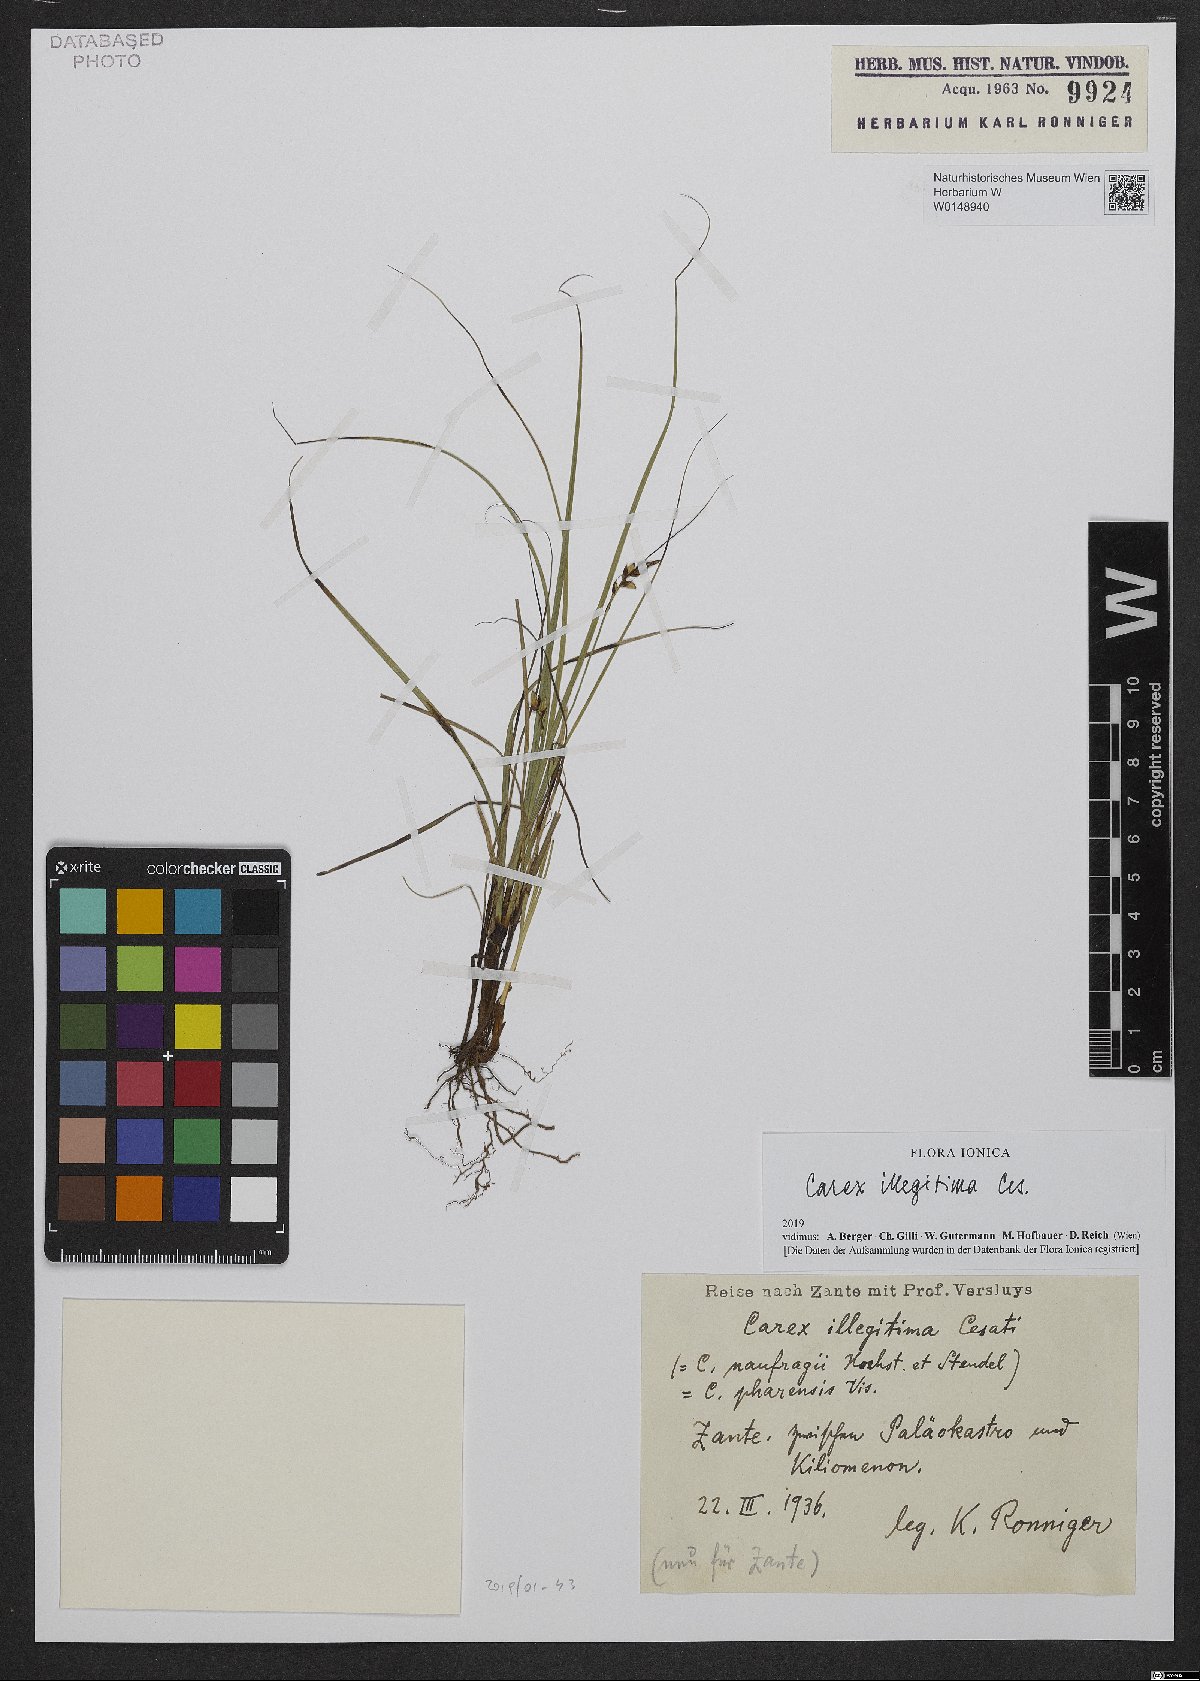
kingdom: Plantae
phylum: Tracheophyta
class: Liliopsida
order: Poales
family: Cyperaceae
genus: Carex
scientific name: Carex illegitima
